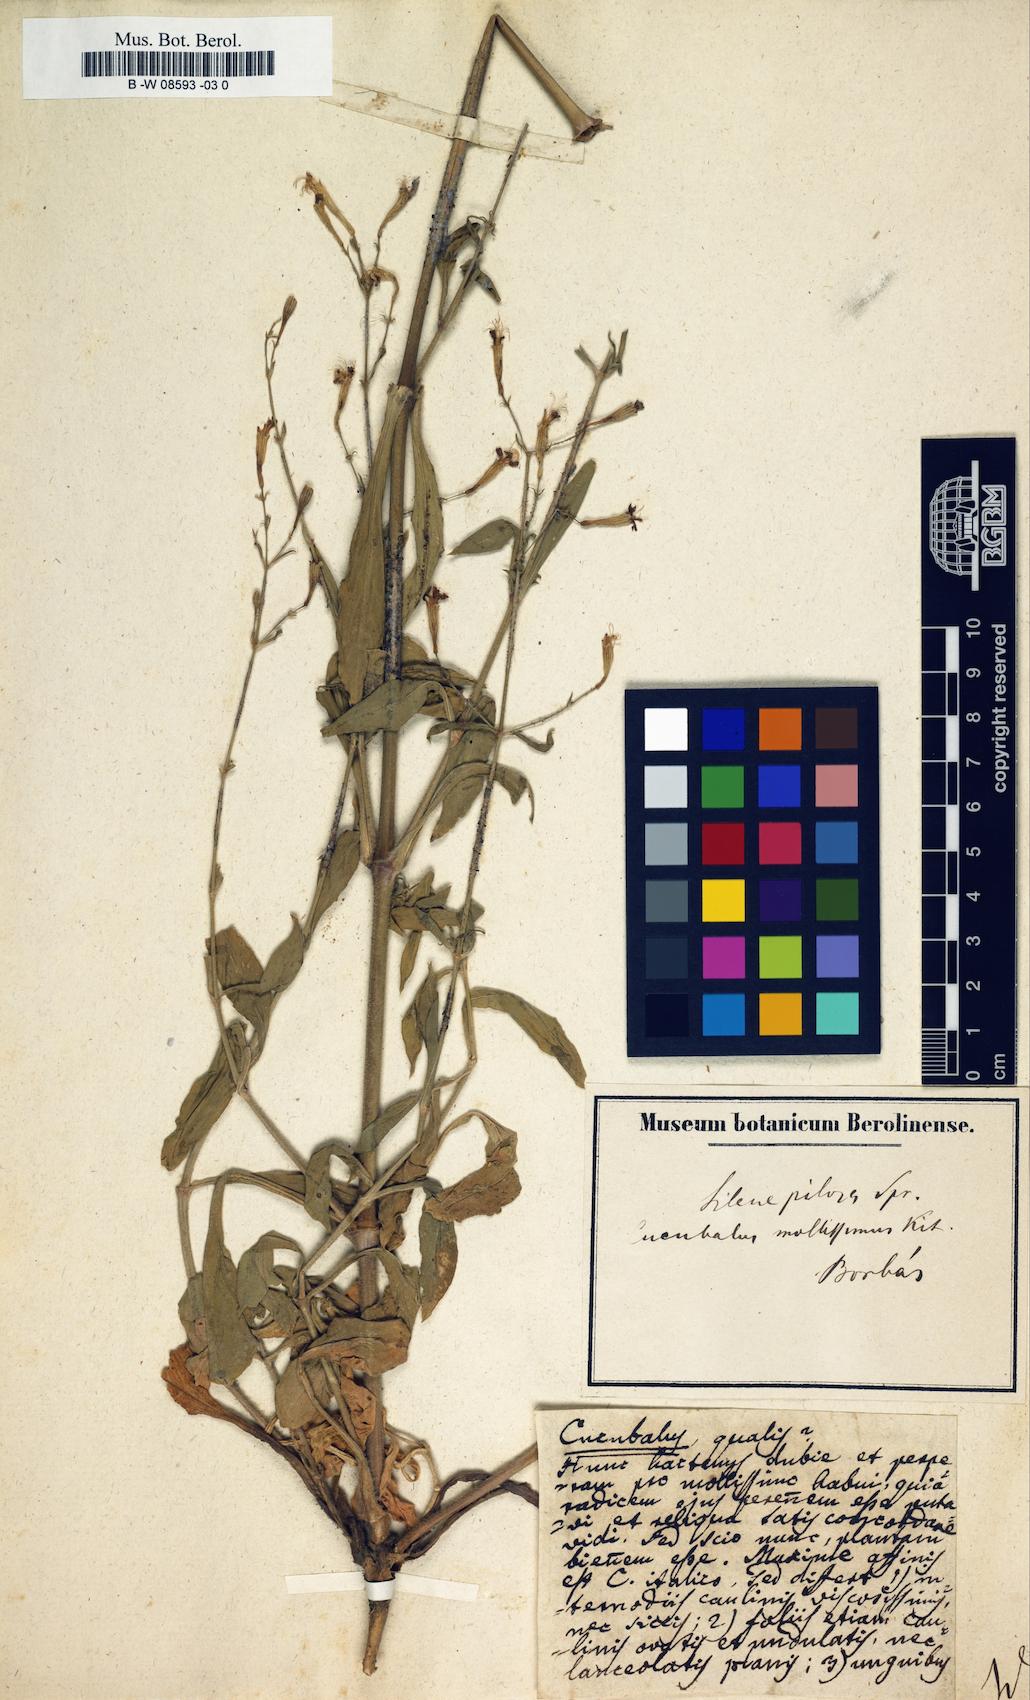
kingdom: Animalia
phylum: Cnidaria
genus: Cucubalus
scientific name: Cucubalus
